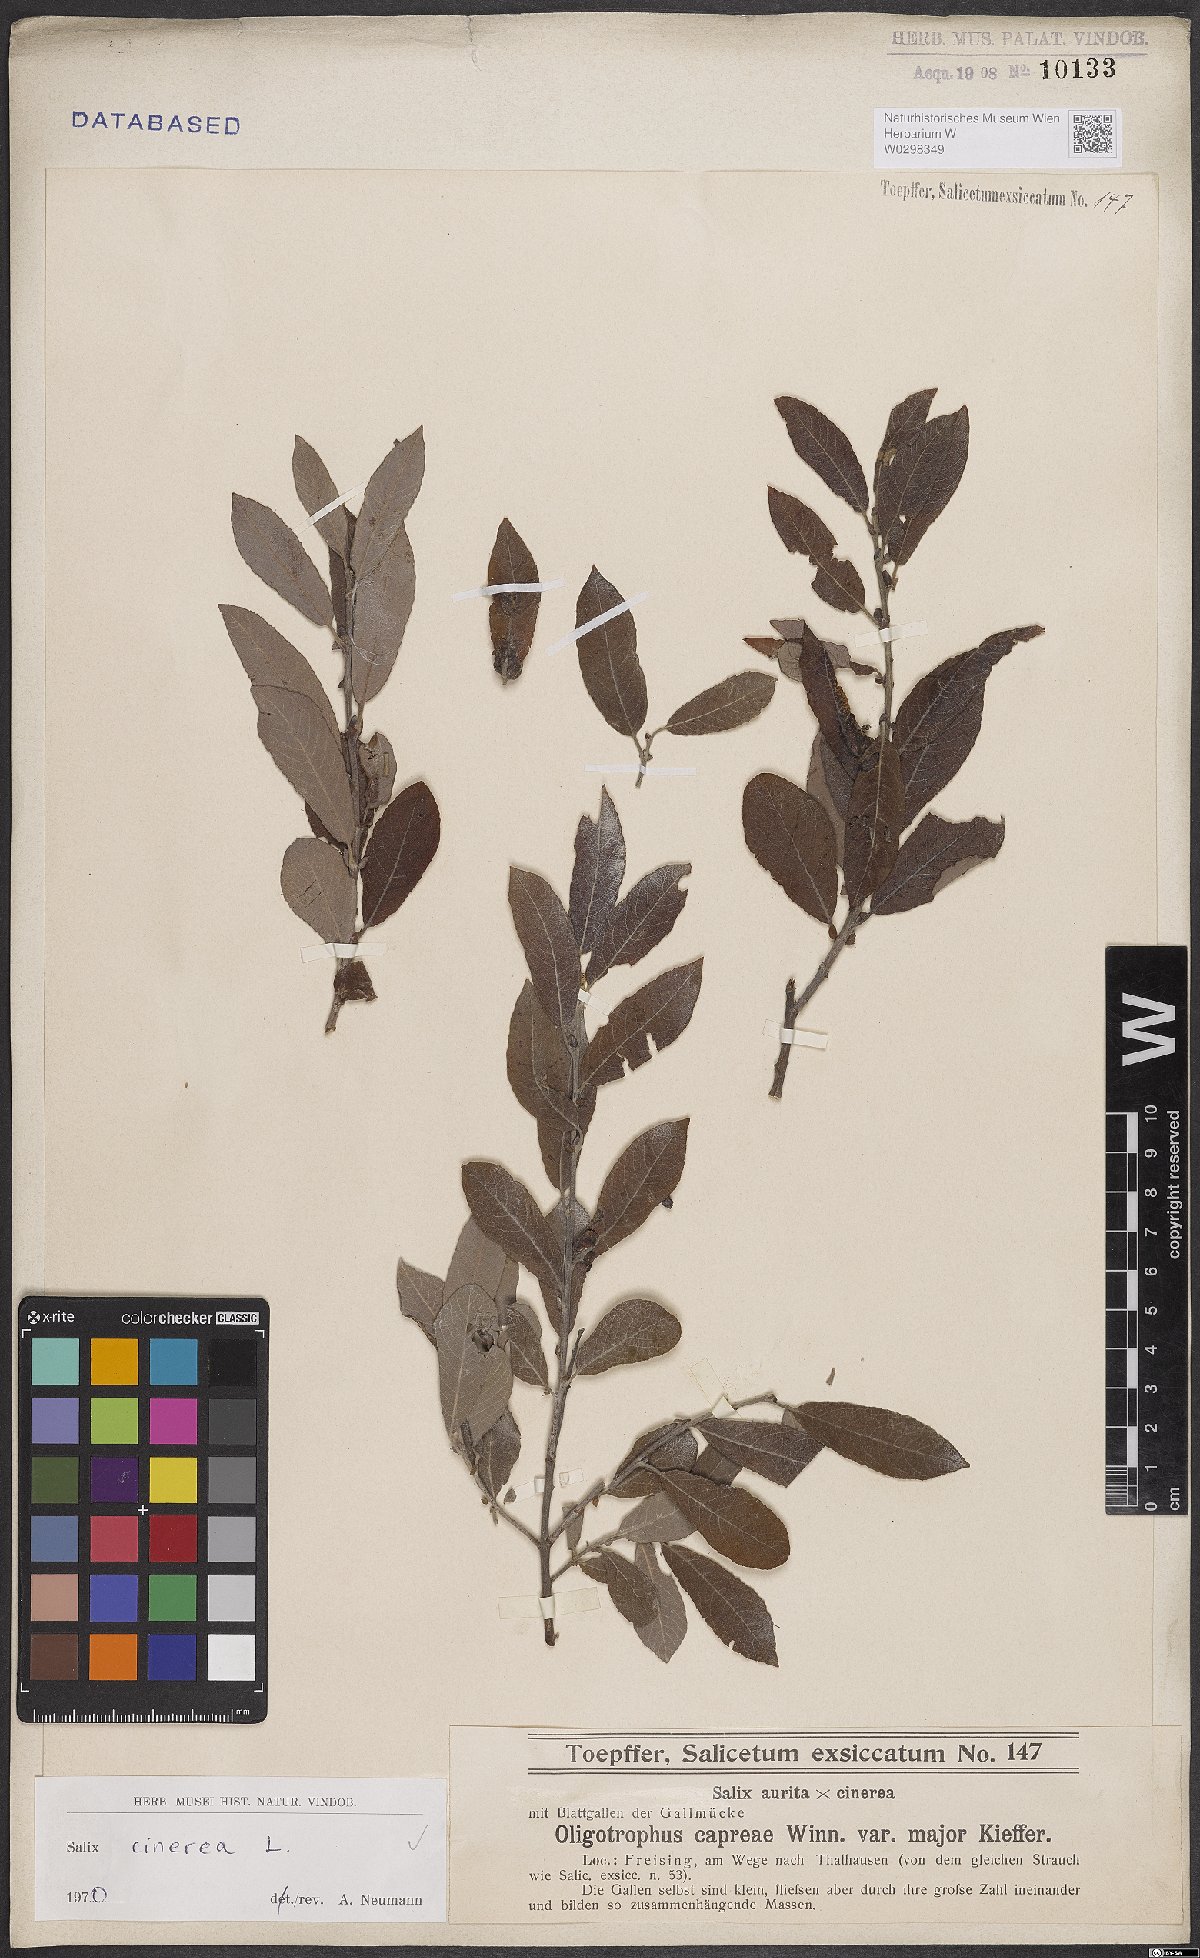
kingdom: Plantae
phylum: Tracheophyta
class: Magnoliopsida
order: Malpighiales
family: Salicaceae
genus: Salix
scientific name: Salix cinerea
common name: Common sallow
